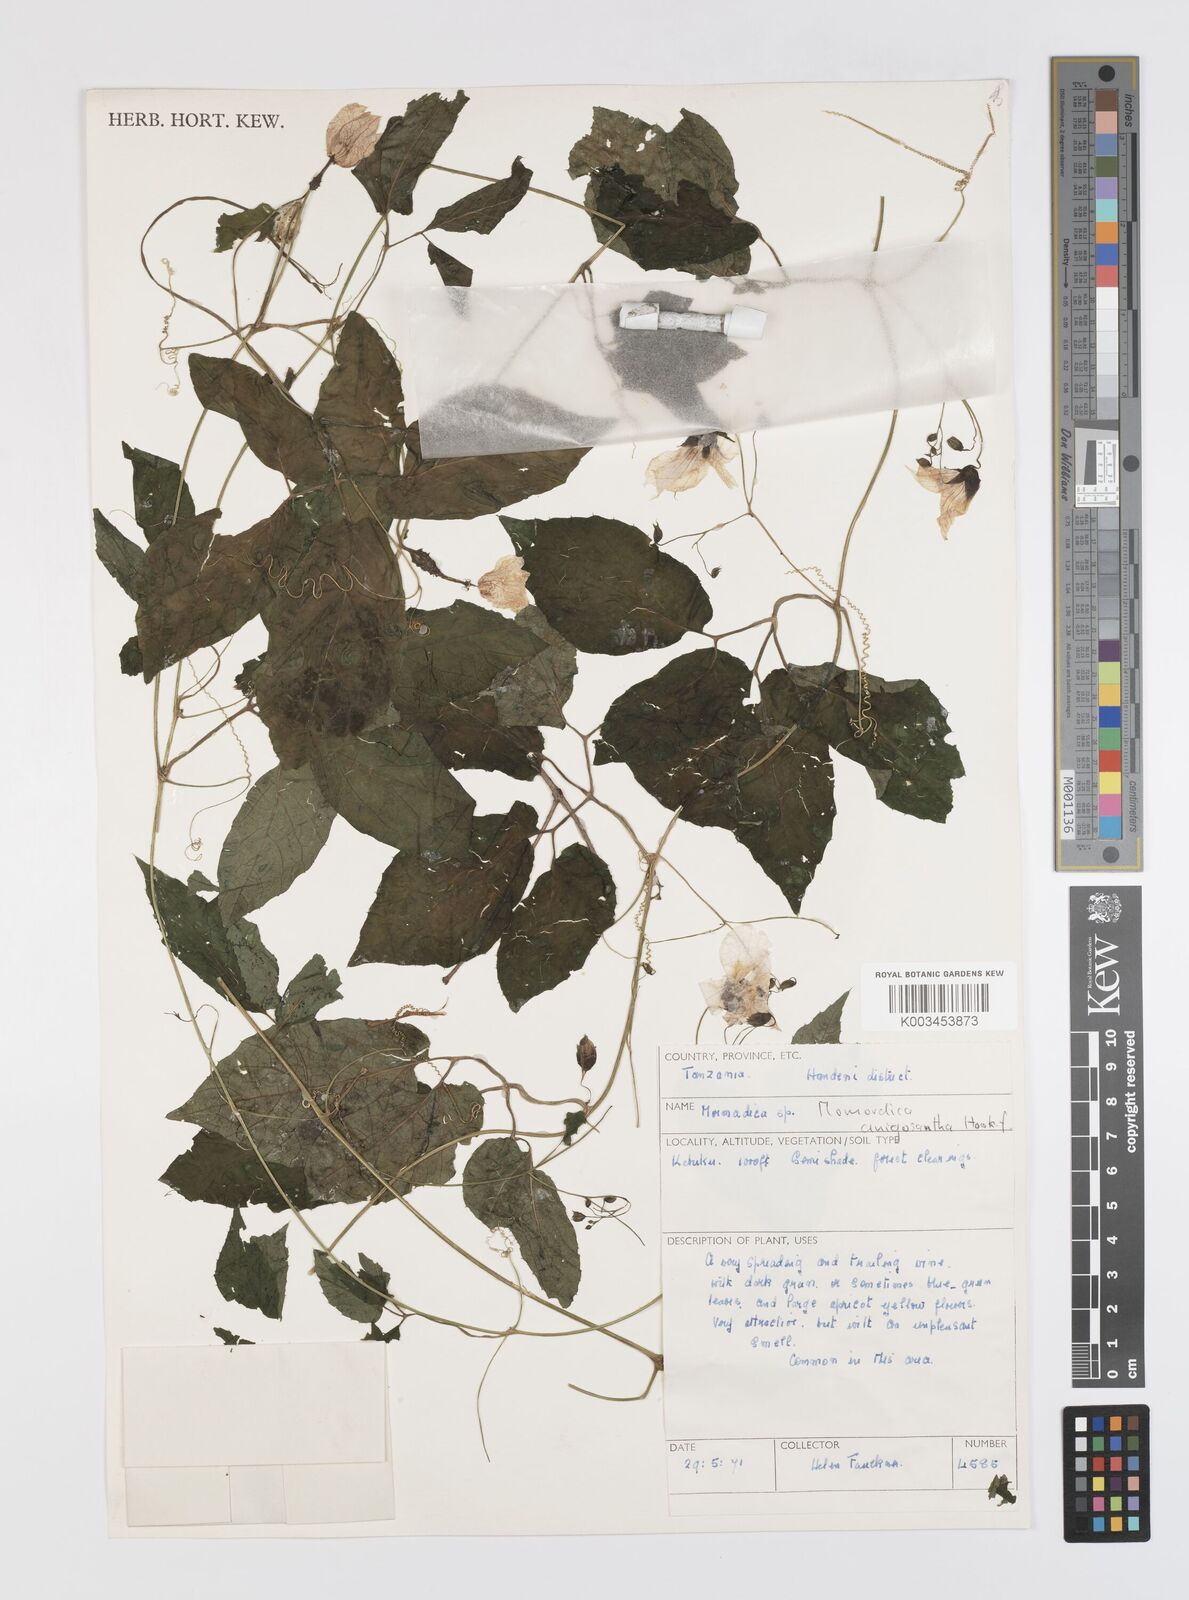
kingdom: Plantae
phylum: Tracheophyta
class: Magnoliopsida
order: Cucurbitales
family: Cucurbitaceae
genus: Momordica
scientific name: Momordica anigosantha
